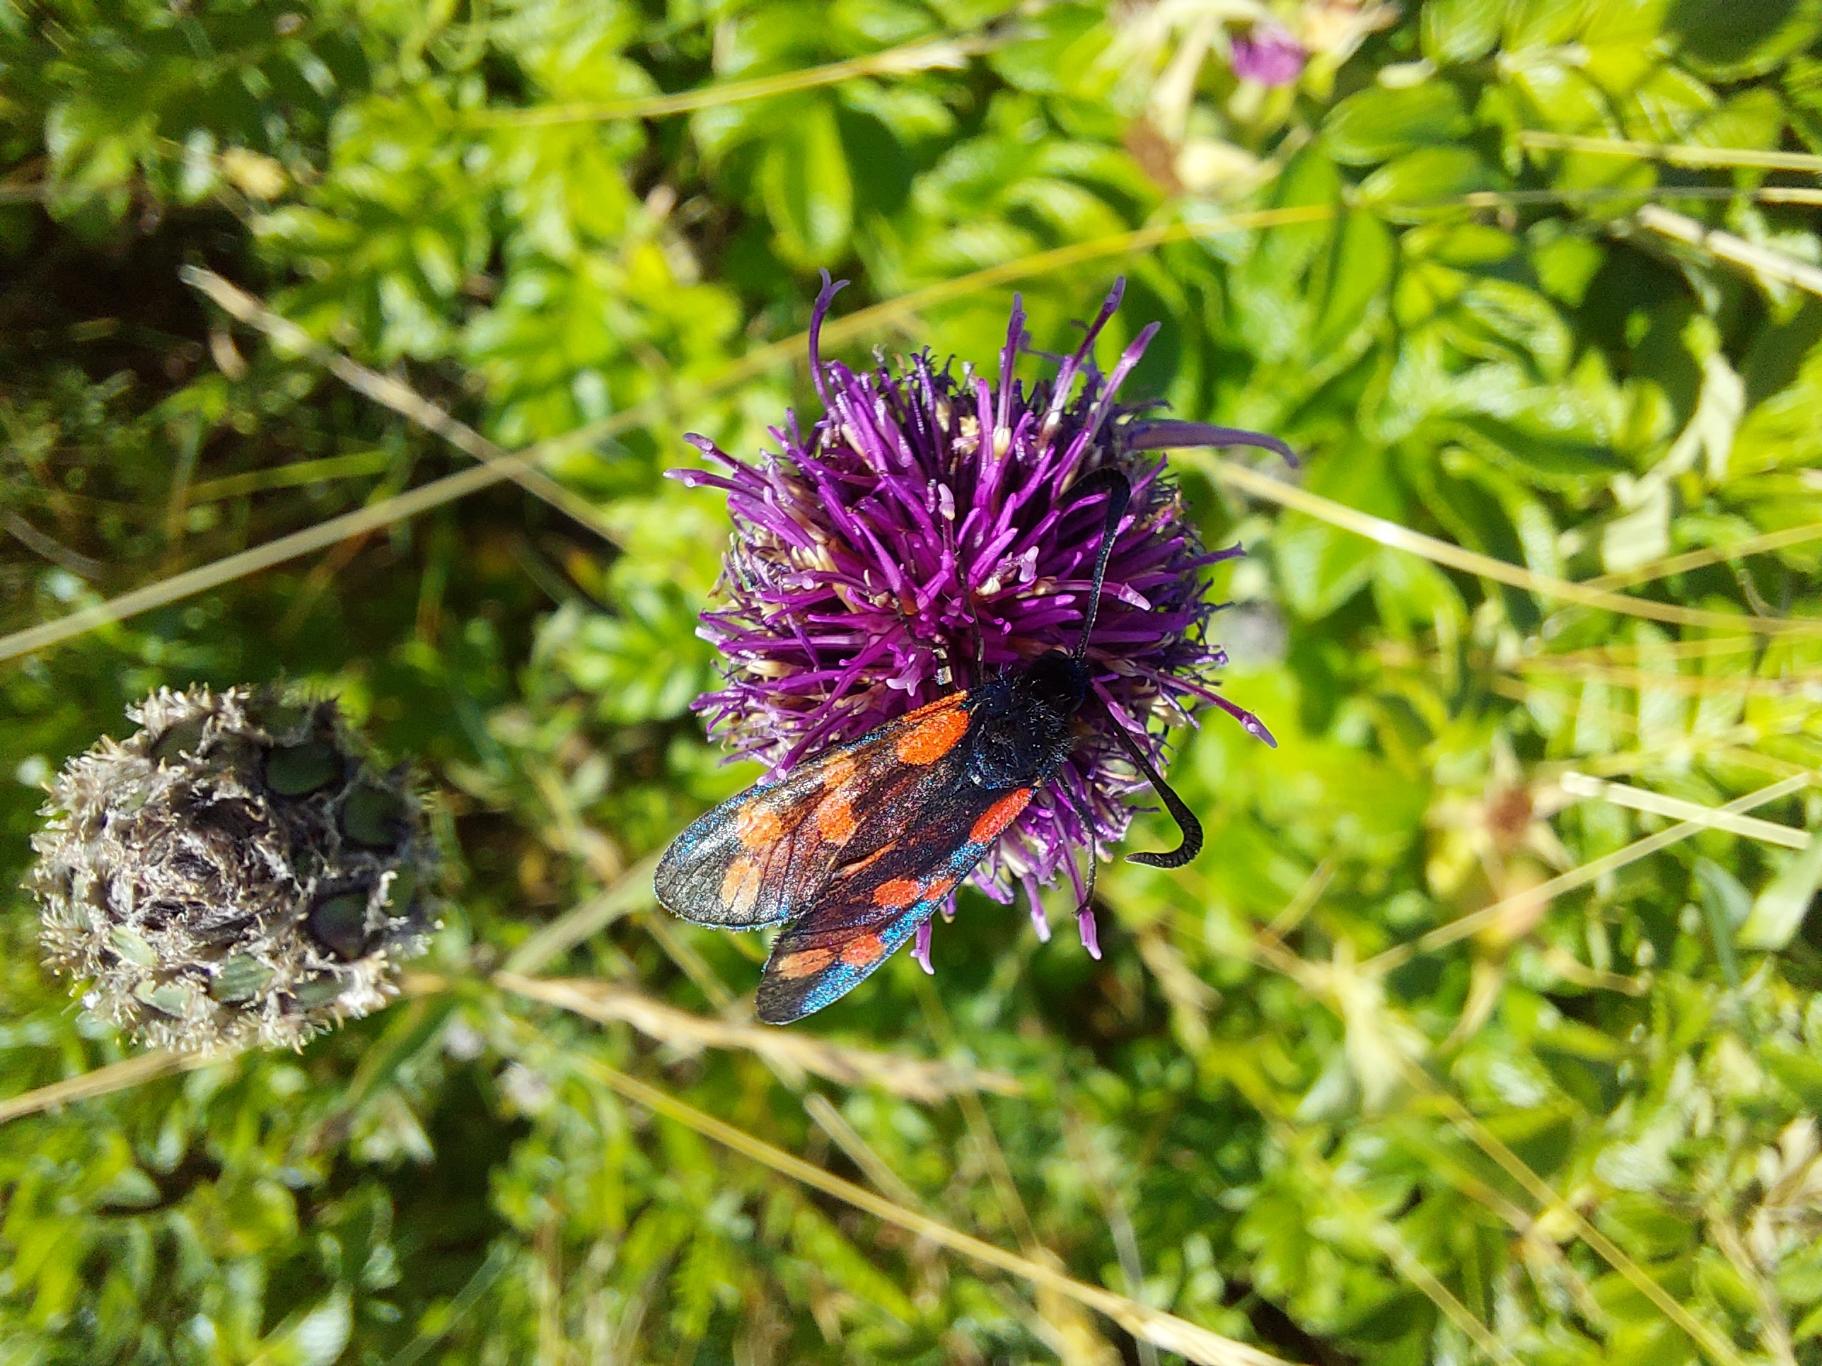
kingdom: Animalia
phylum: Arthropoda
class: Insecta
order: Lepidoptera
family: Zygaenidae
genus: Zygaena
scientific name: Zygaena filipendulae
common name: Seksplettet køllesværmer
